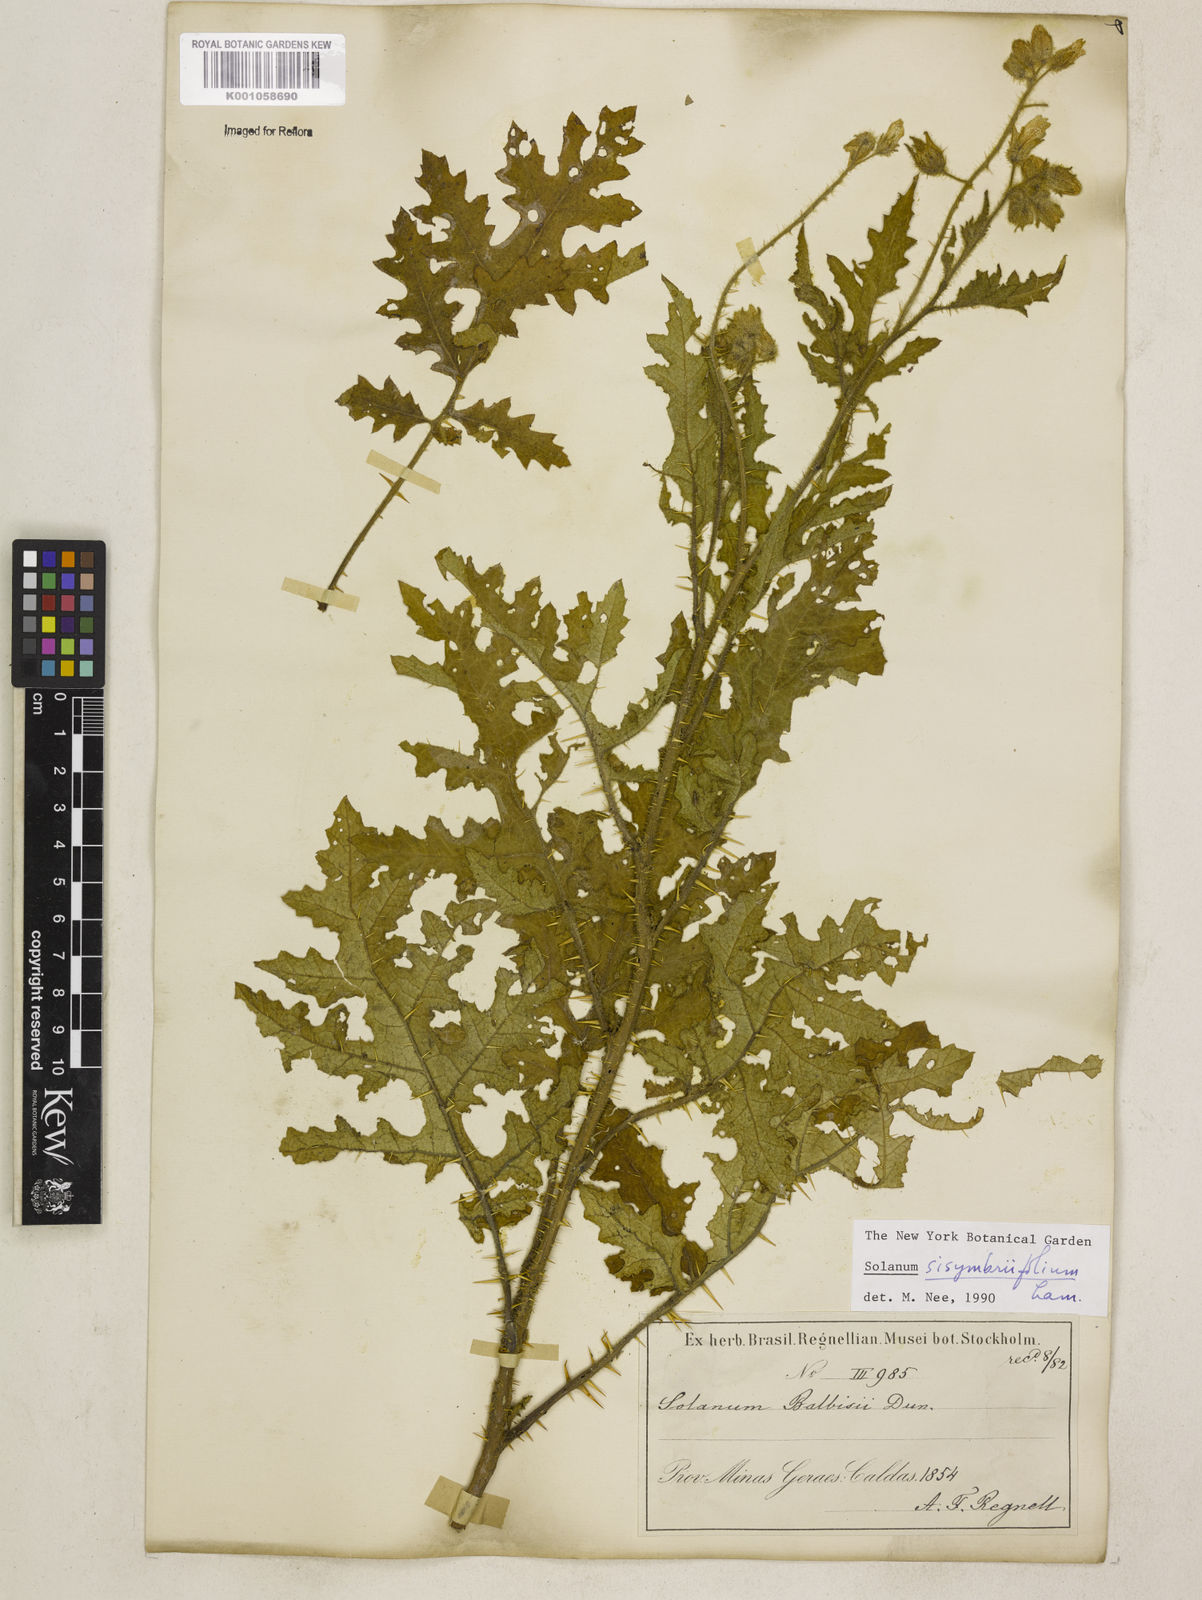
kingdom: Plantae
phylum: Tracheophyta
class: Magnoliopsida
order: Solanales
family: Solanaceae
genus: Solanum
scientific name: Solanum sisymbriifolium
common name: Red buffalo-bur
